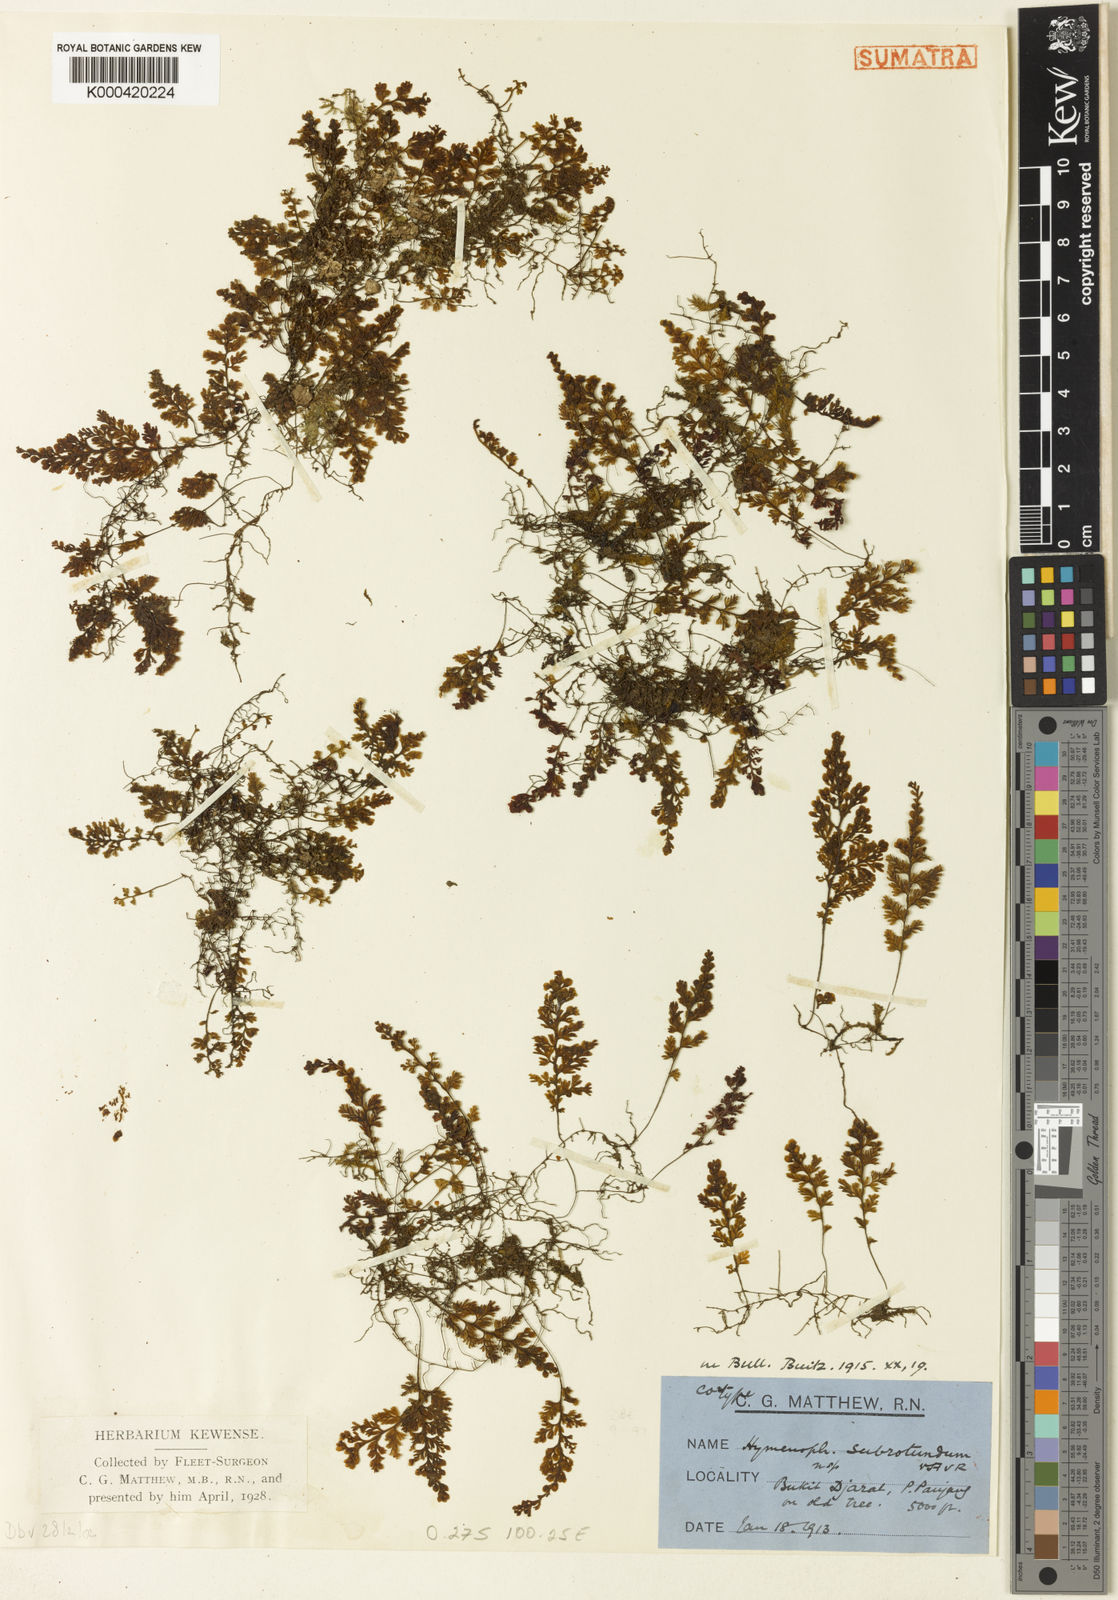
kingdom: Plantae
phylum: Tracheophyta
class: Polypodiopsida
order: Hymenophyllales
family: Hymenophyllaceae
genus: Hymenophyllum
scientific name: Hymenophyllum denticulatum
